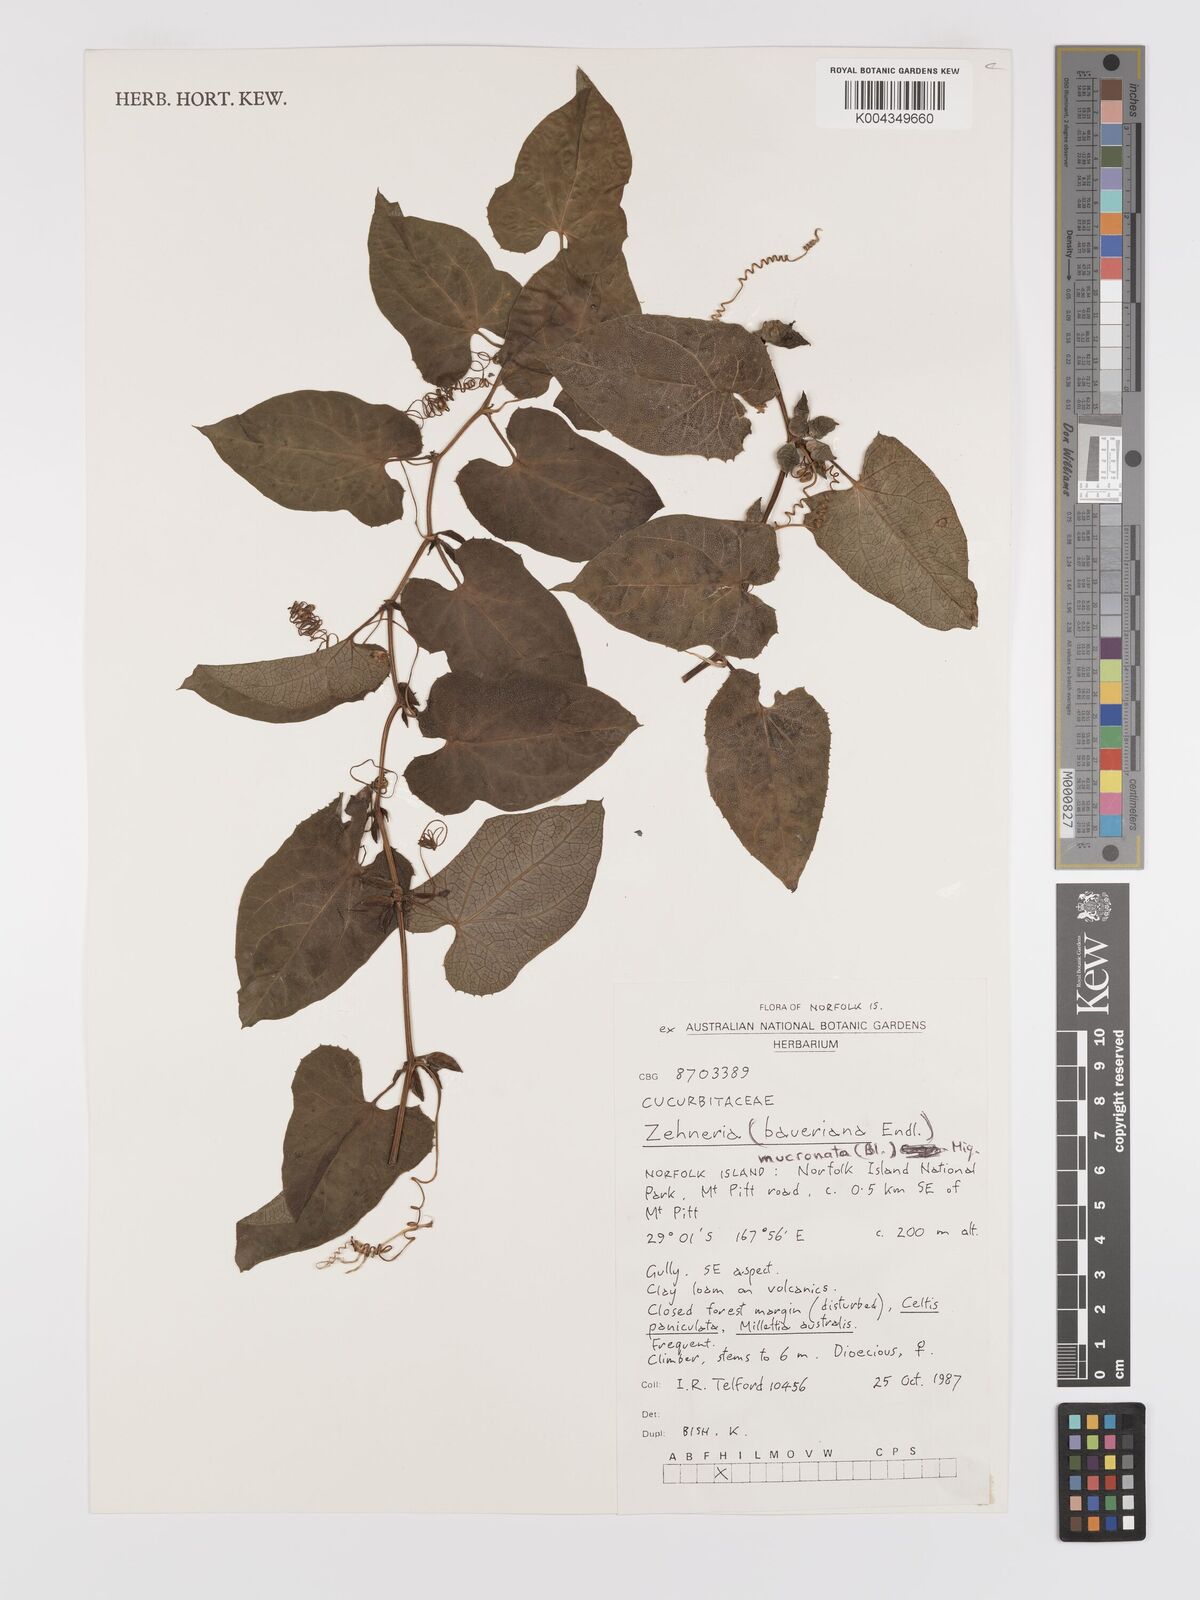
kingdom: Plantae
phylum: Tracheophyta
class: Magnoliopsida
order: Cucurbitales
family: Cucurbitaceae
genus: Zehneria
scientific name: Zehneria mucronata
